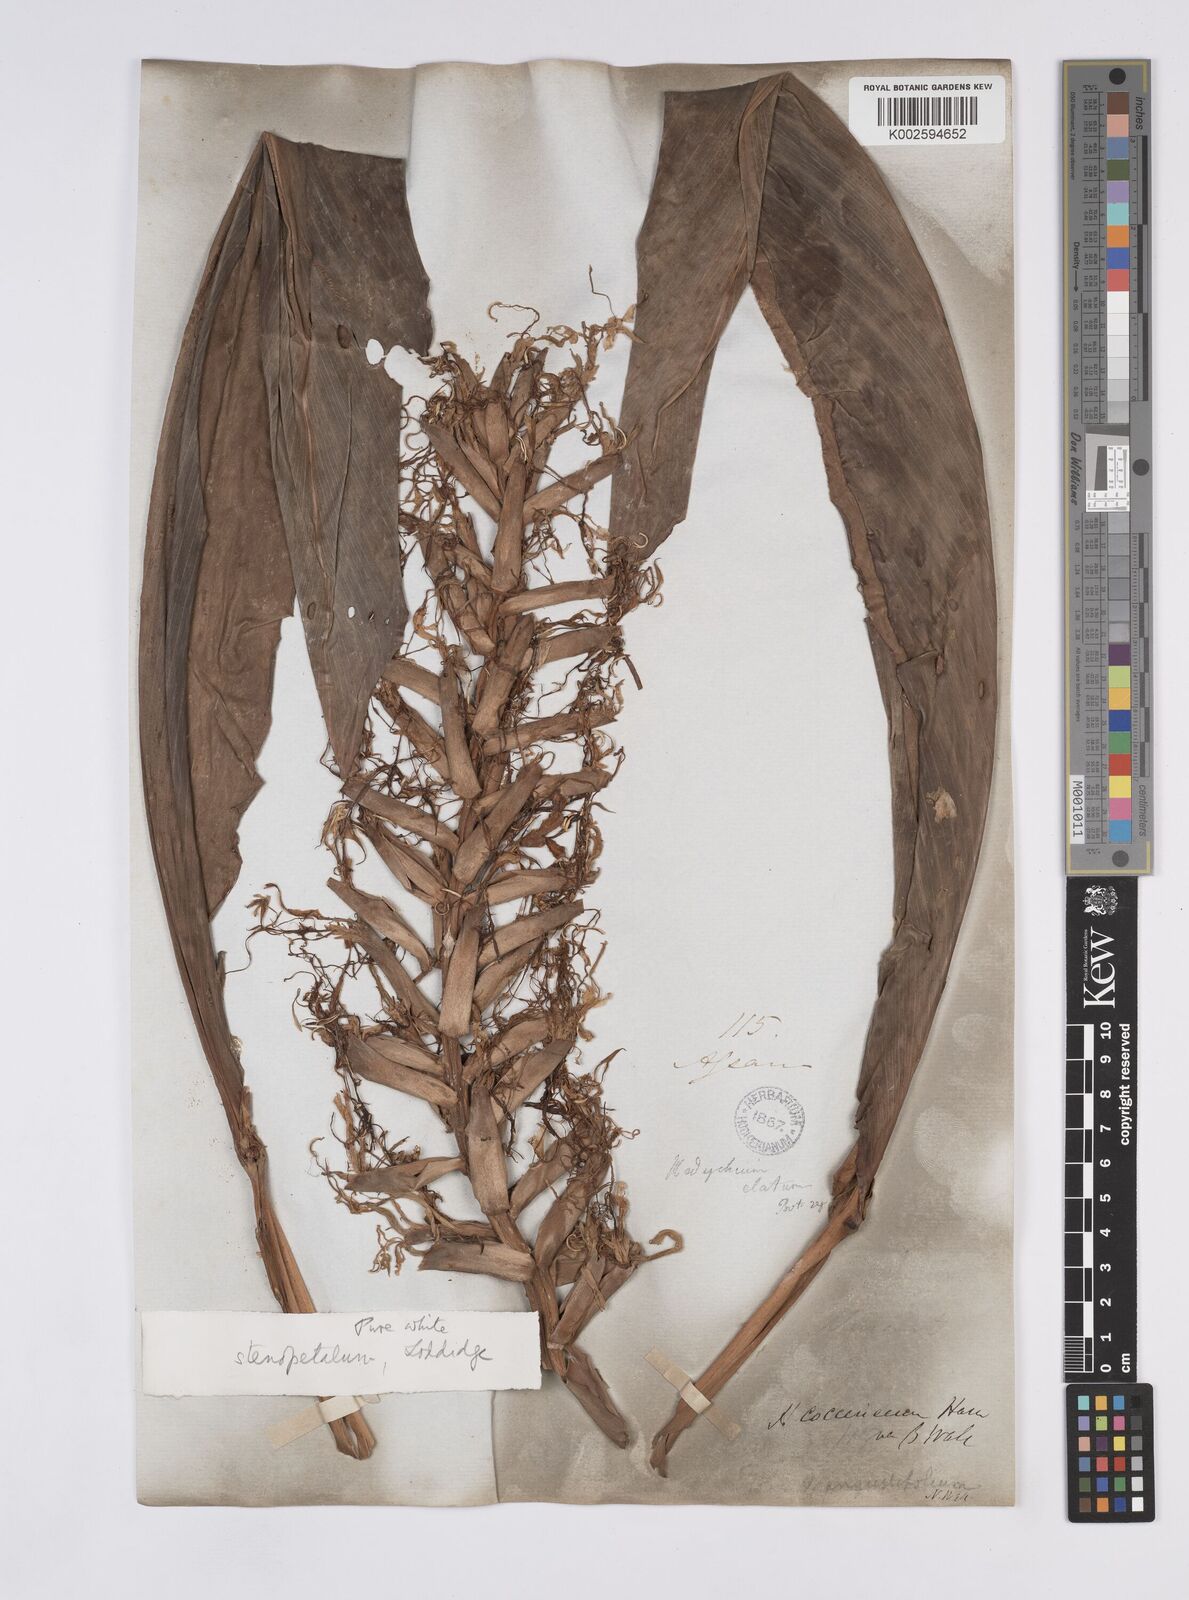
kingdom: Plantae
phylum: Tracheophyta
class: Liliopsida
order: Zingiberales
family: Zingiberaceae
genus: Hedychium
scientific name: Hedychium stenopetalum
